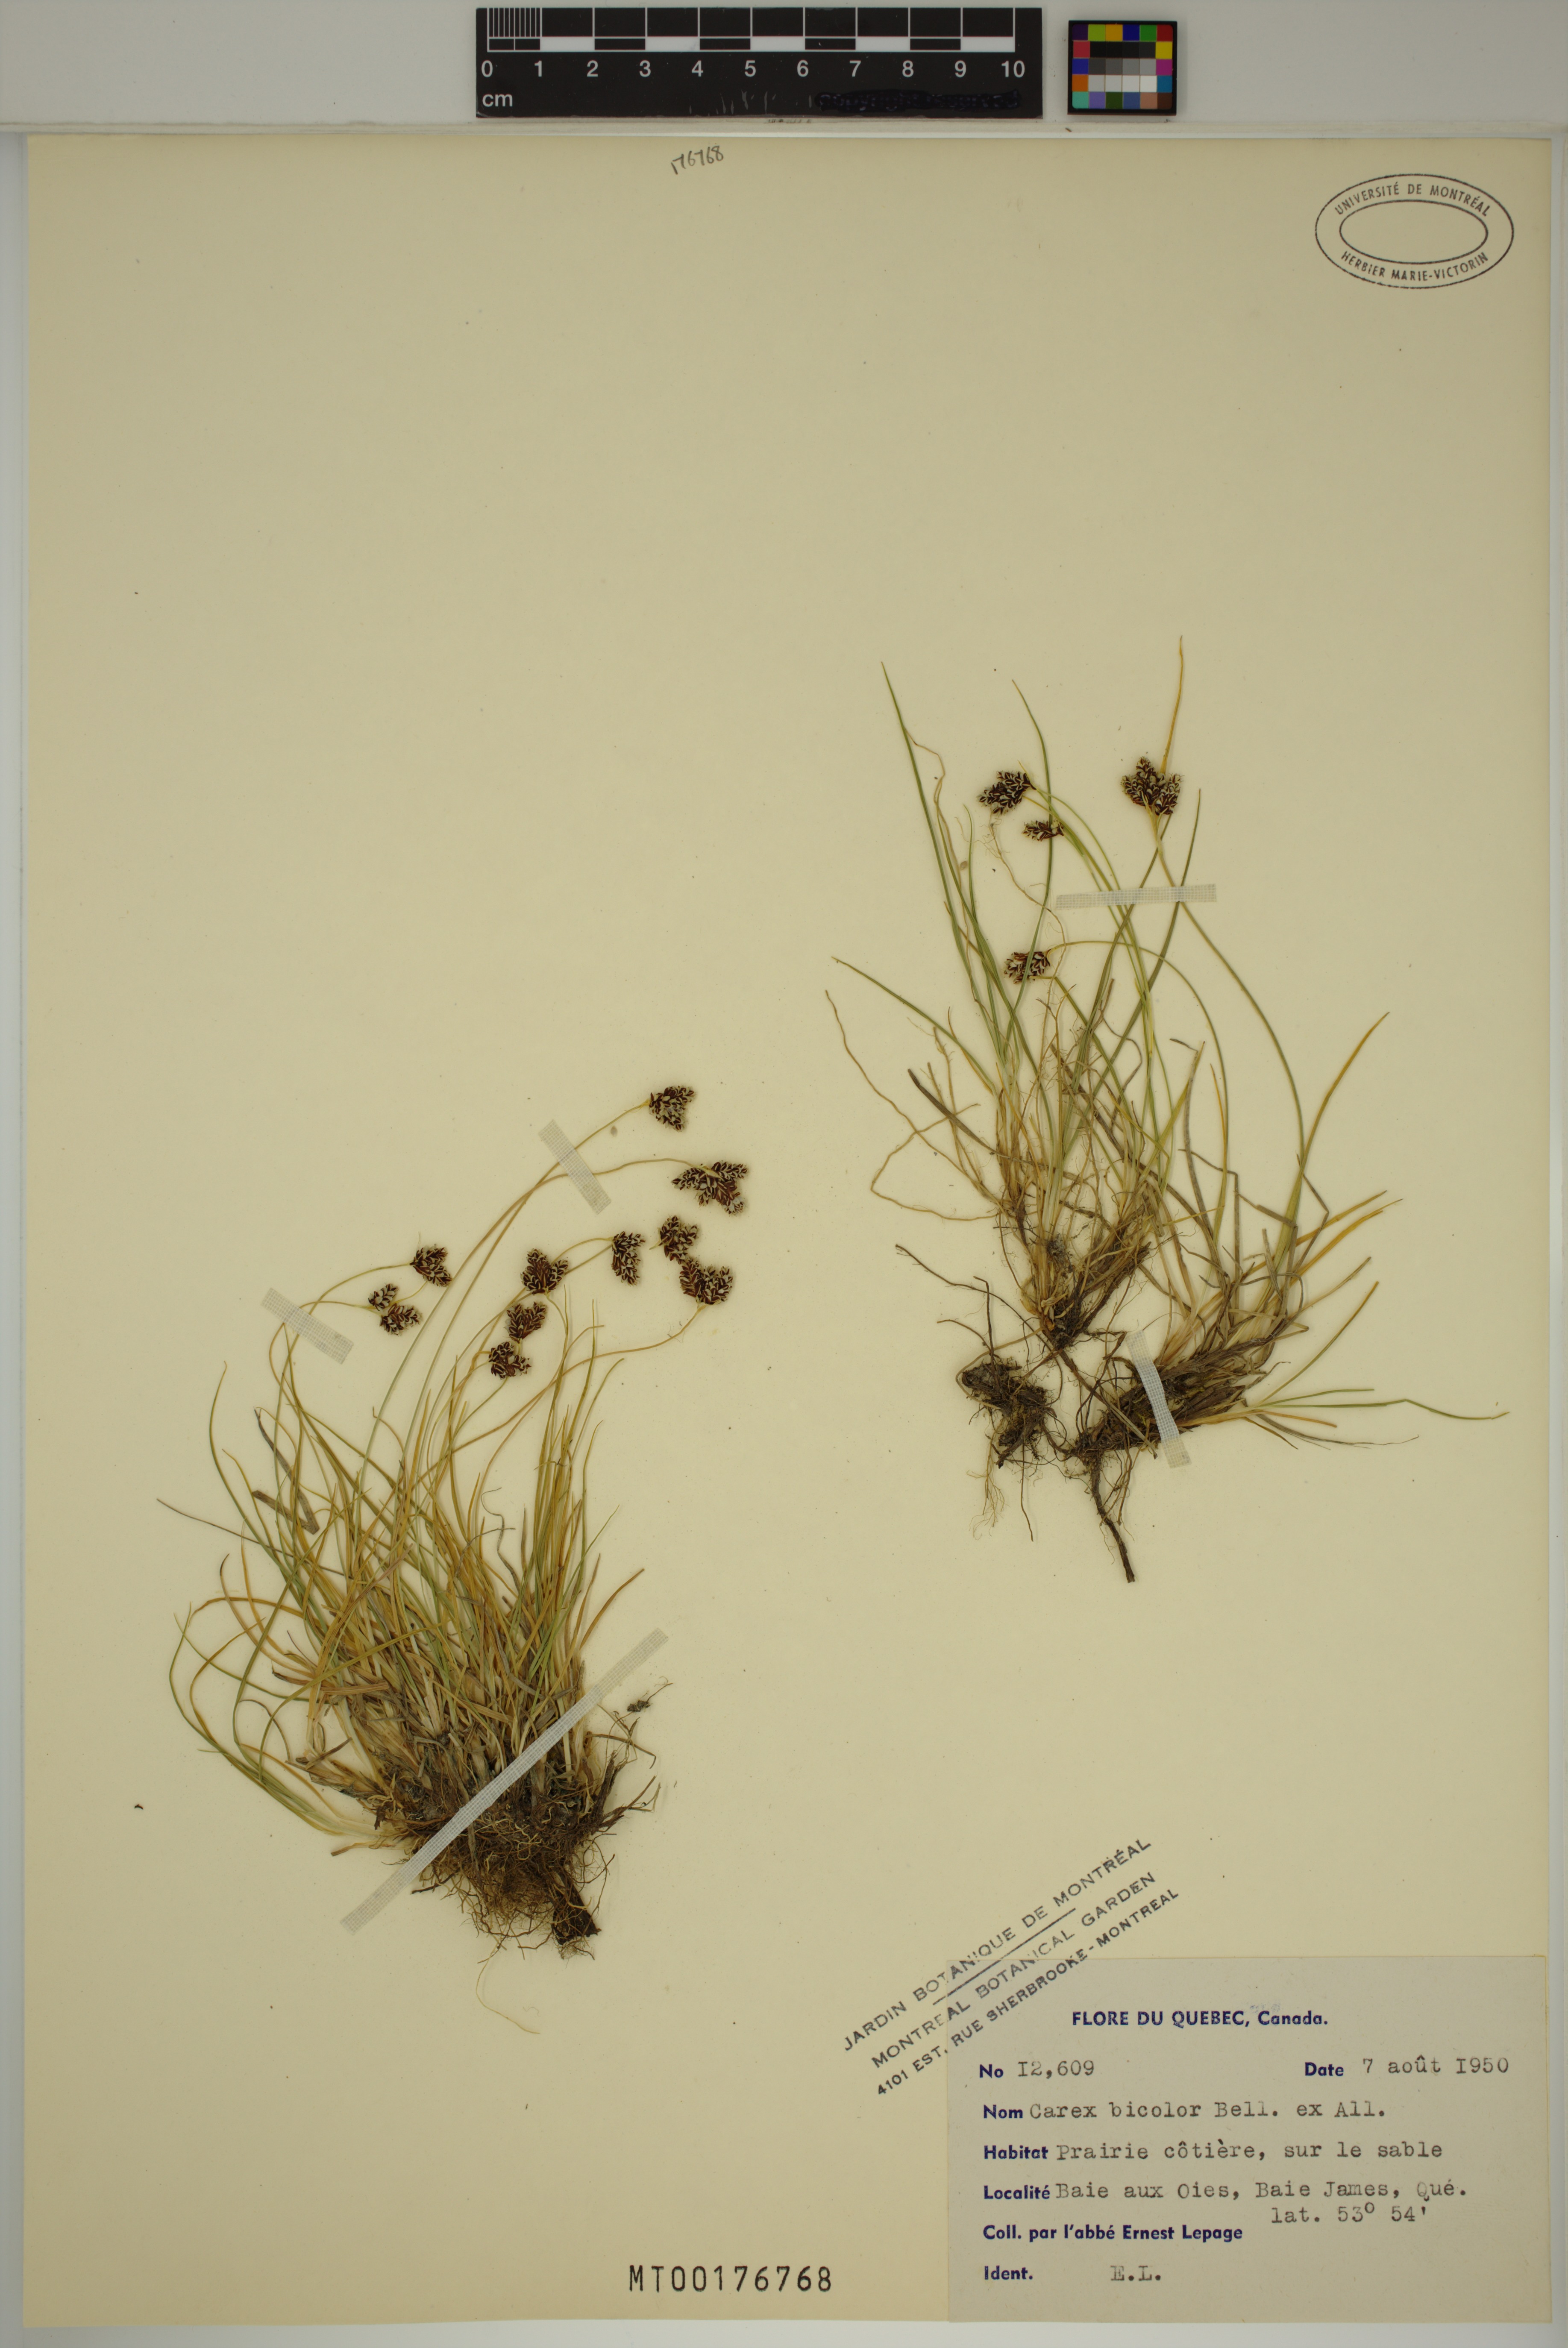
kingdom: Plantae
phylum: Tracheophyta
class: Liliopsida
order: Poales
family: Cyperaceae
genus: Carex
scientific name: Carex bicolor
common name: Bicoloured sedge
